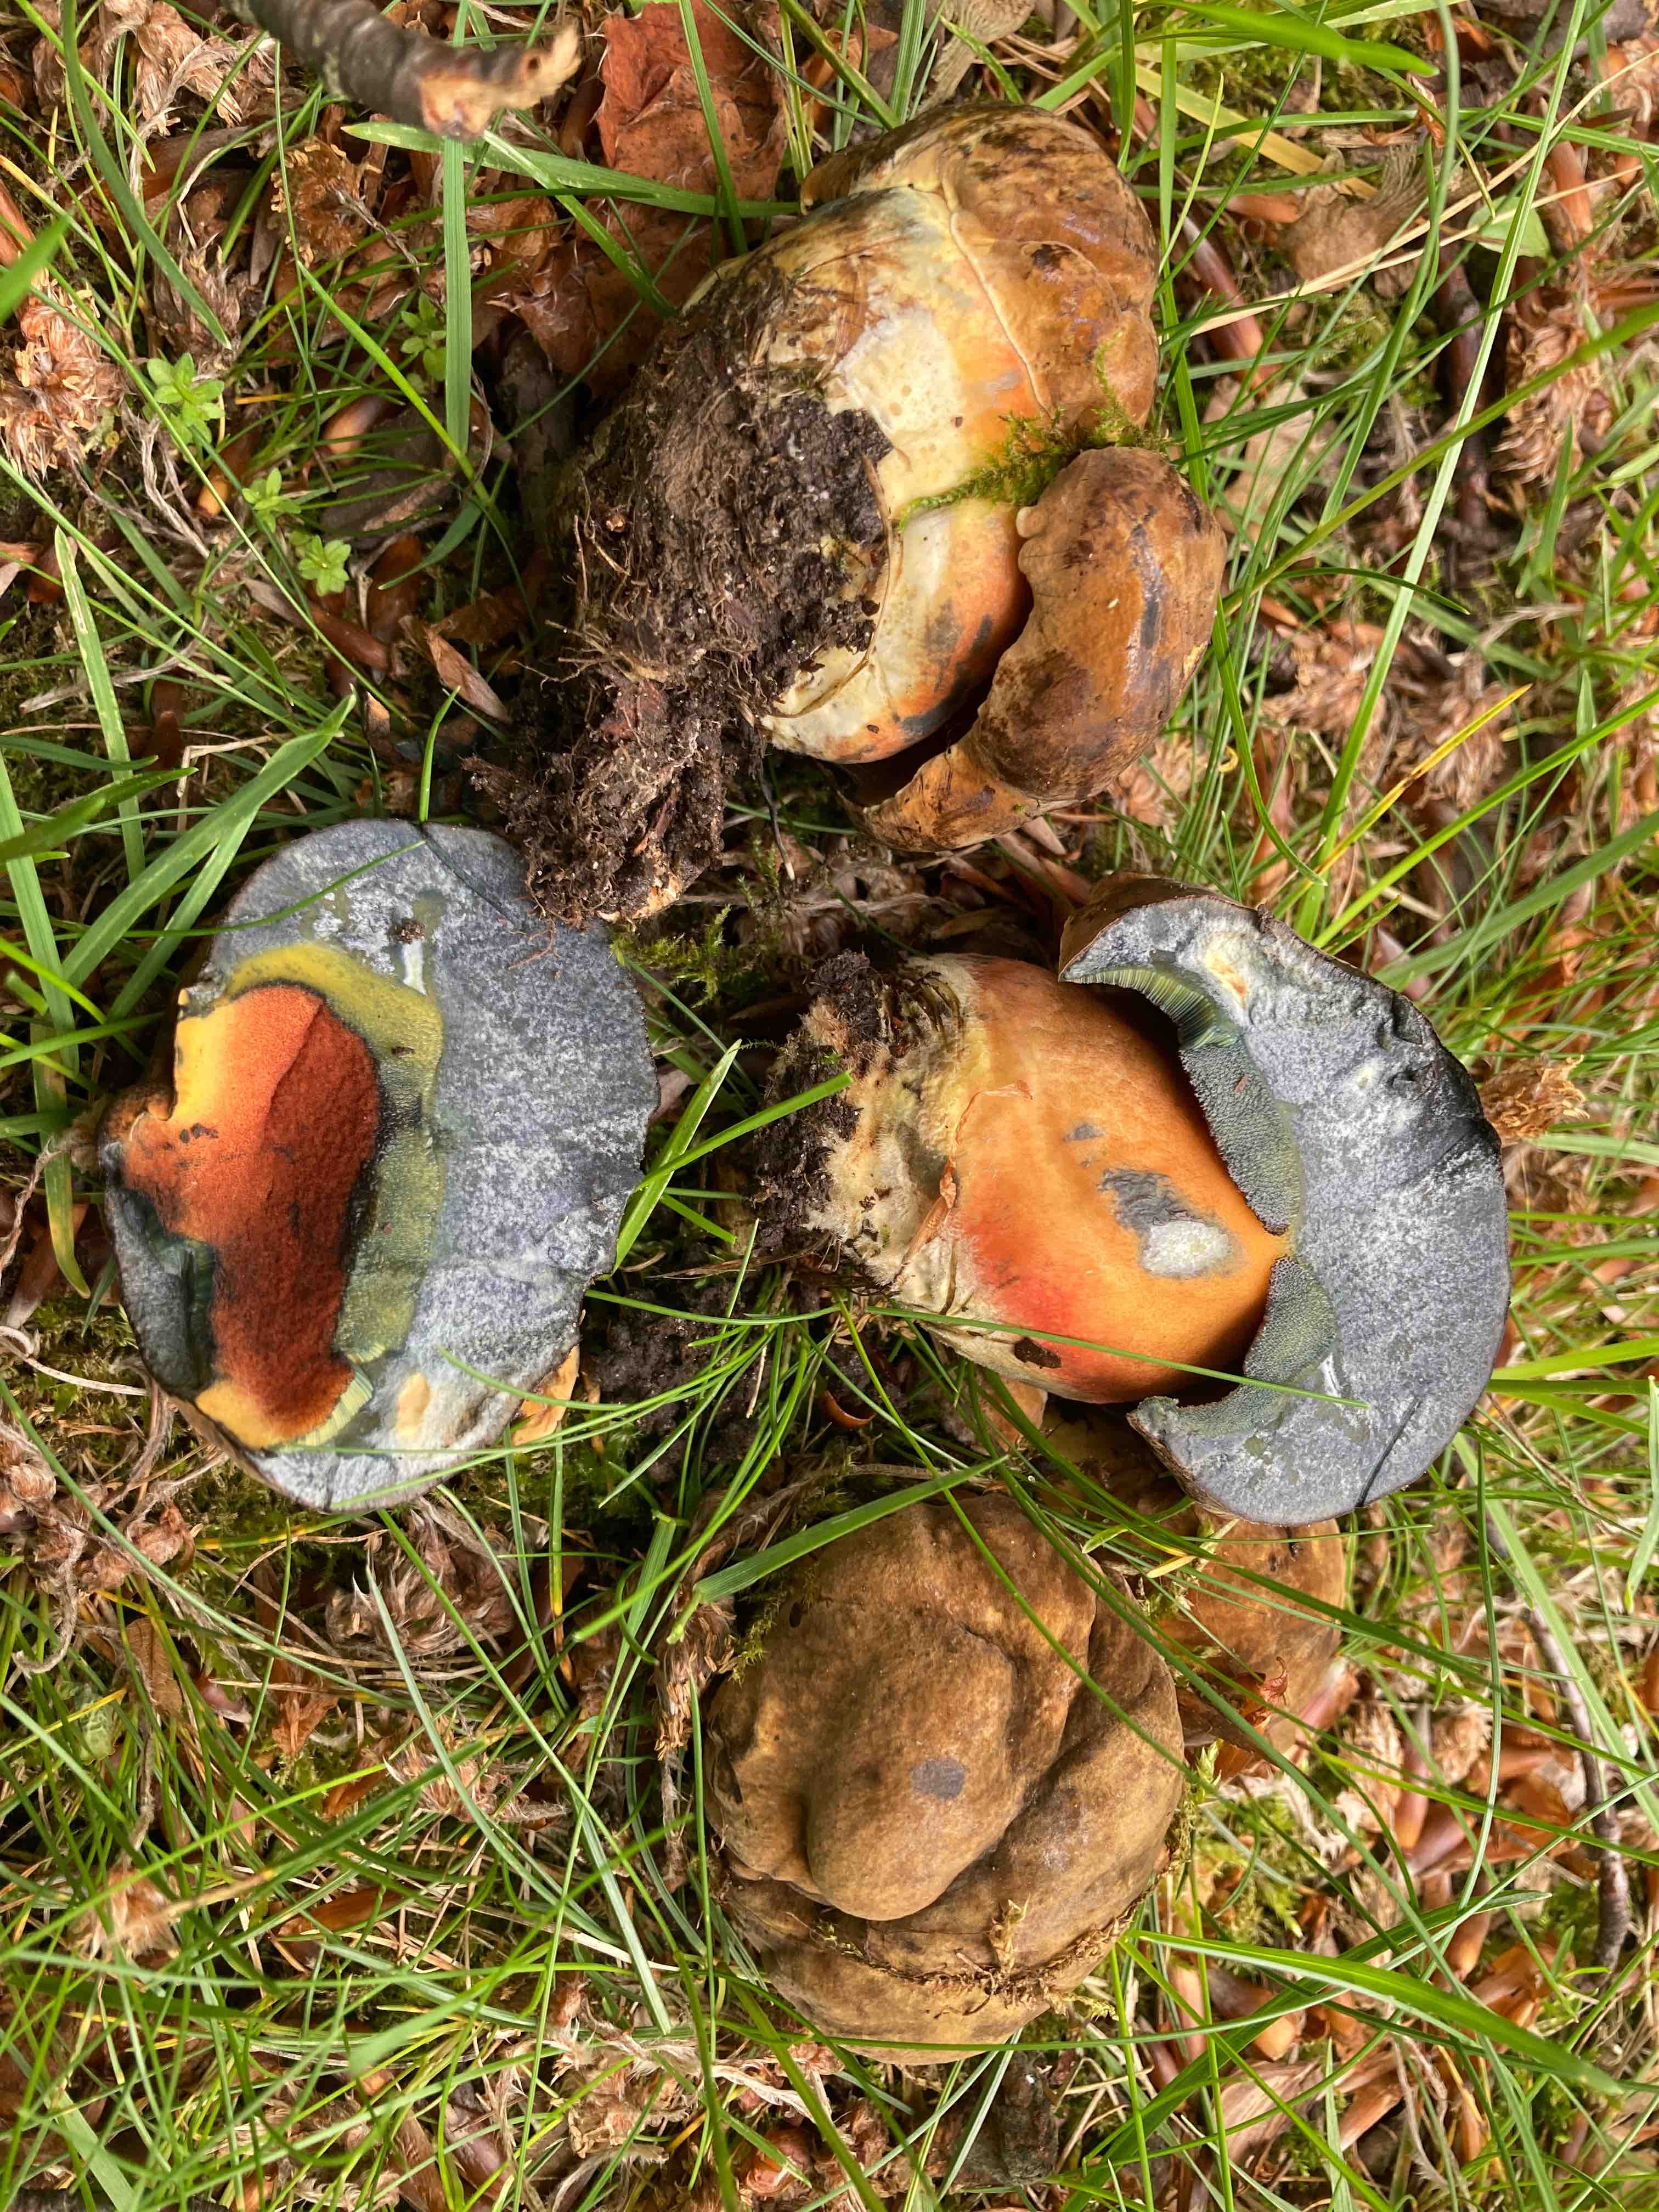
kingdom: Fungi
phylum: Basidiomycota
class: Agaricomycetes
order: Boletales
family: Boletaceae
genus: Neoboletus
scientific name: Neoboletus xanthopus
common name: finprikket indigorørhat
